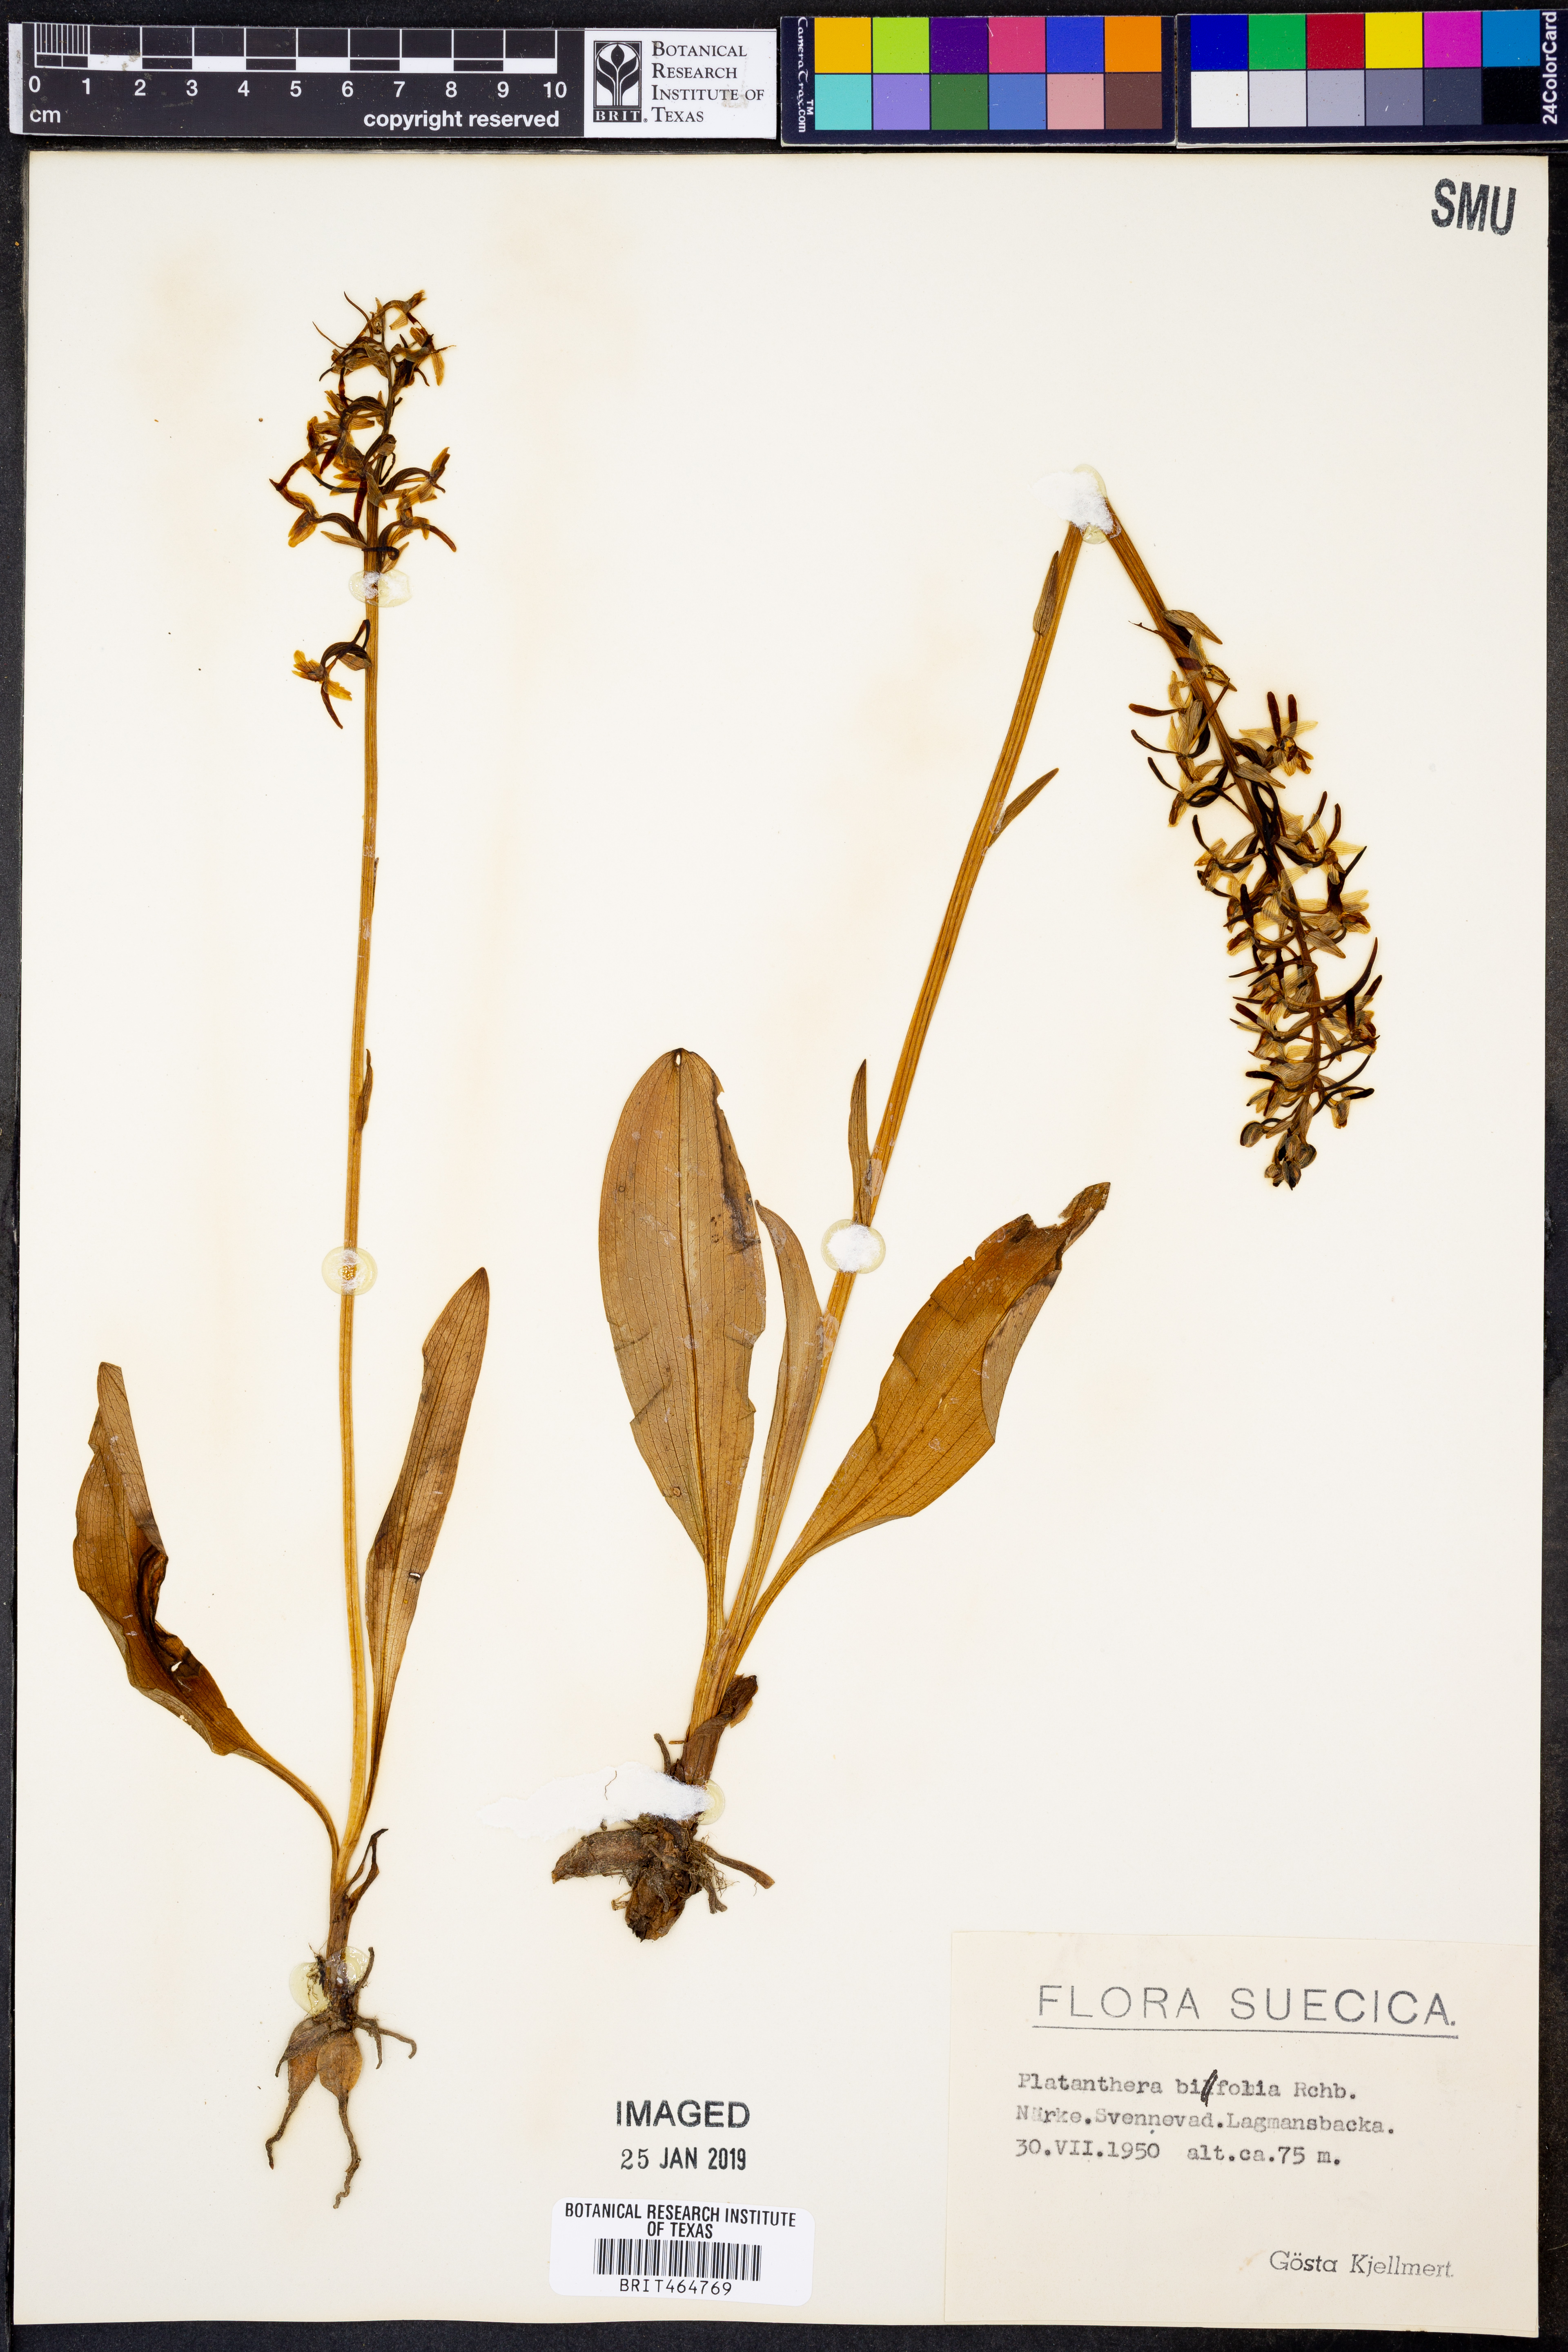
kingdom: Plantae
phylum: Tracheophyta
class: Liliopsida
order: Asparagales
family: Orchidaceae
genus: Platanthera
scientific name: Platanthera bifolia
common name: Lesser butterfly-orchid
